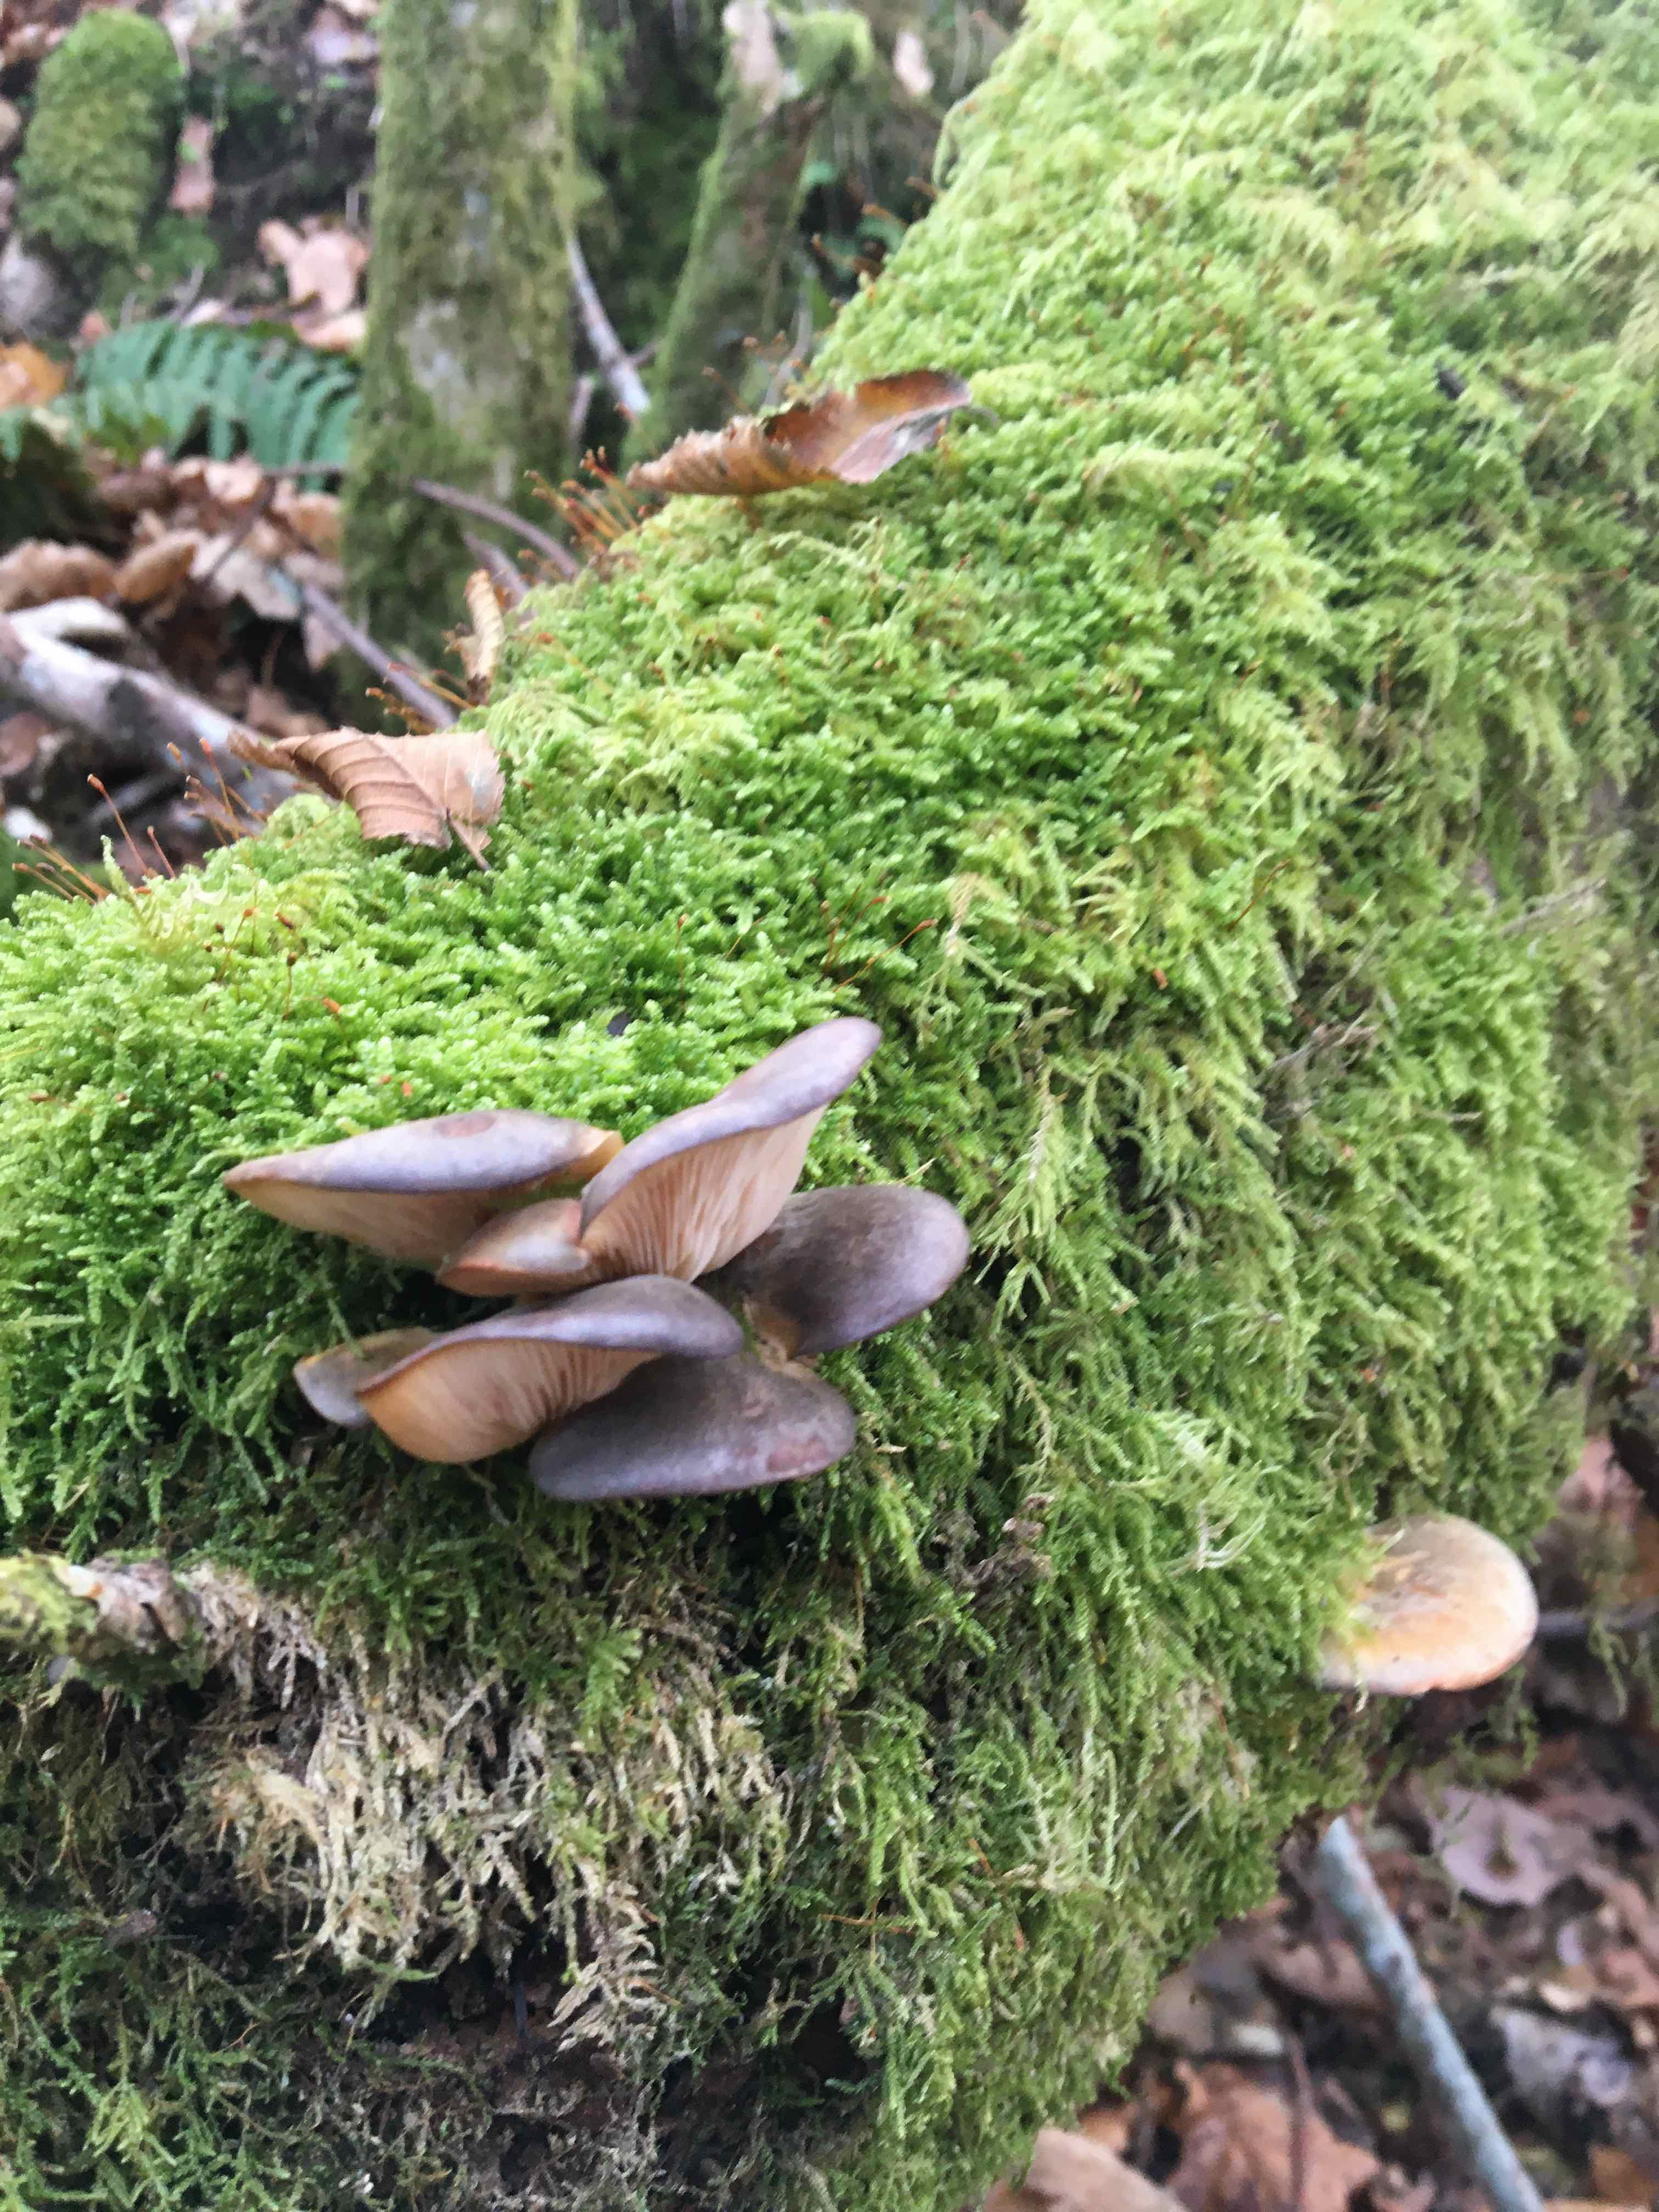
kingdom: Fungi
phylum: Basidiomycota
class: Agaricomycetes
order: Agaricales
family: Sarcomyxaceae
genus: Sarcomyxa
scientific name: Sarcomyxa serotina
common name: gummihat
